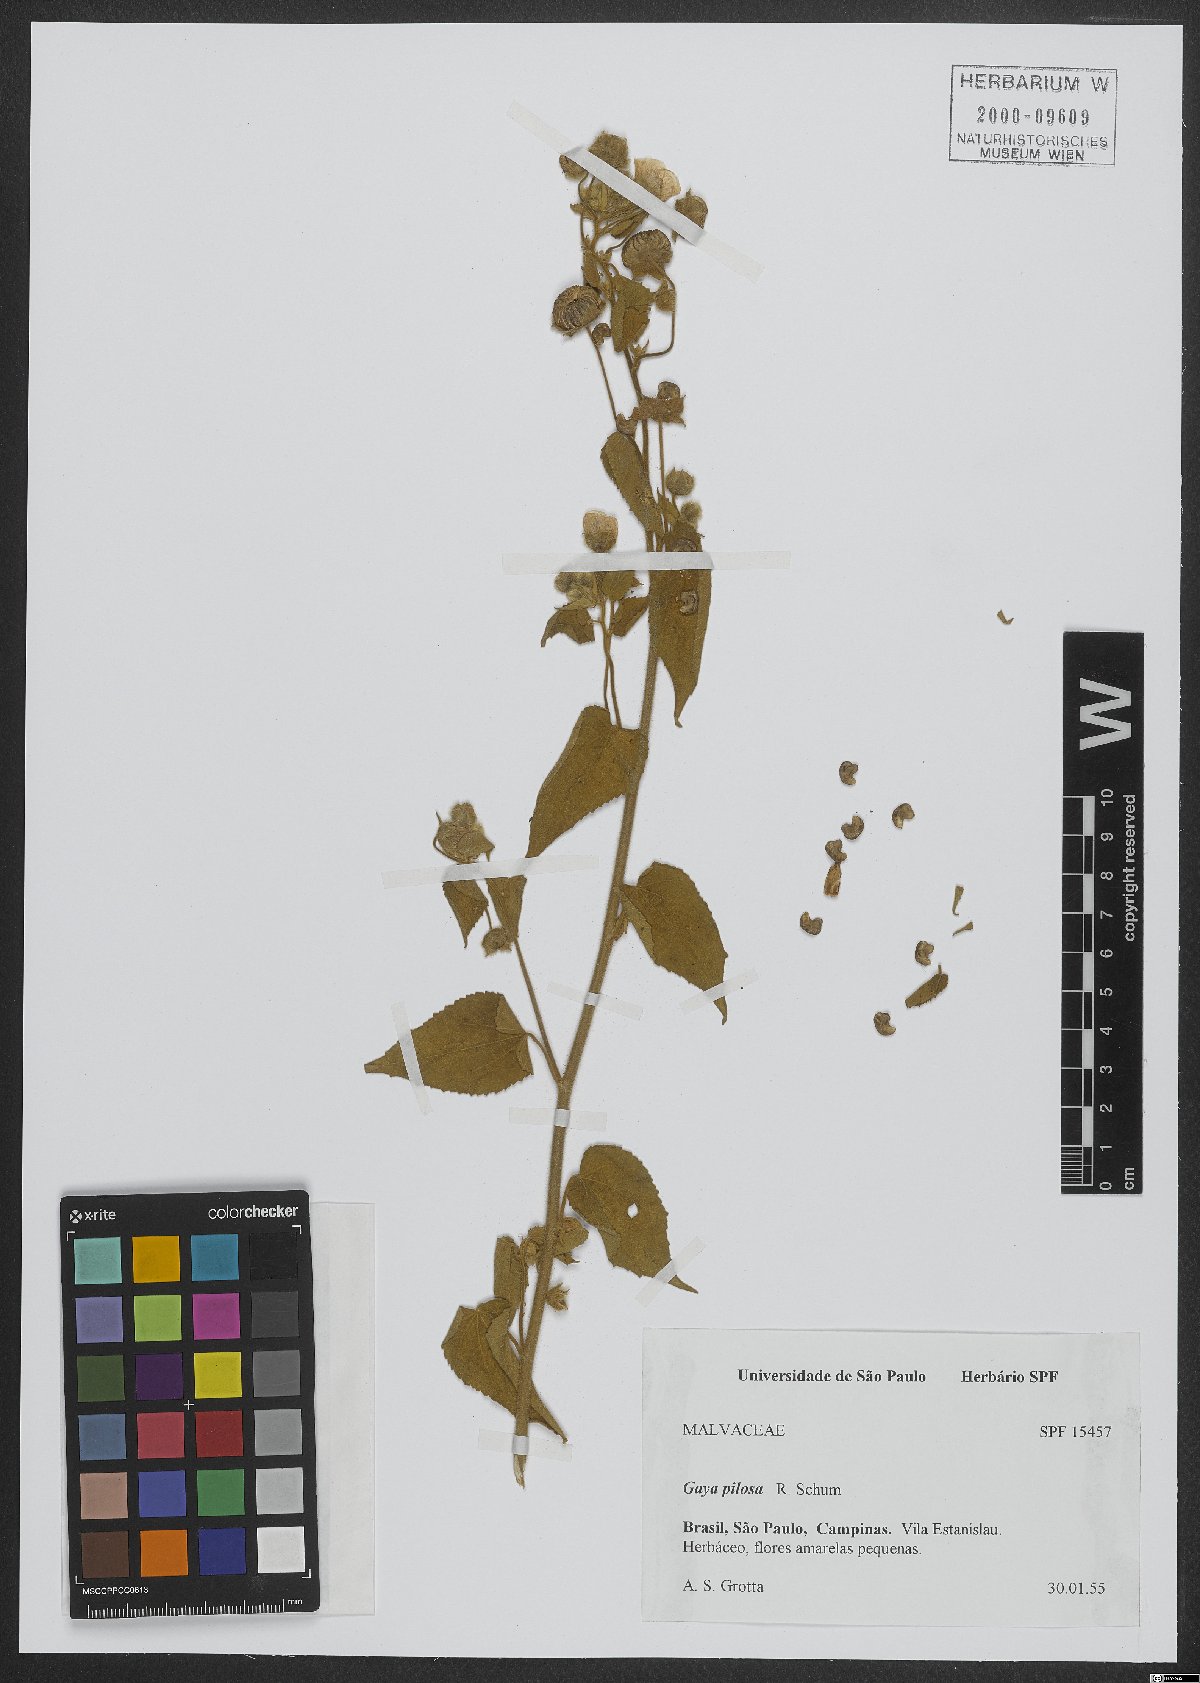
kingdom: Plantae
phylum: Tracheophyta
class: Magnoliopsida
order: Malvales
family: Malvaceae
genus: Gaya
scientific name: Gaya pilosa
